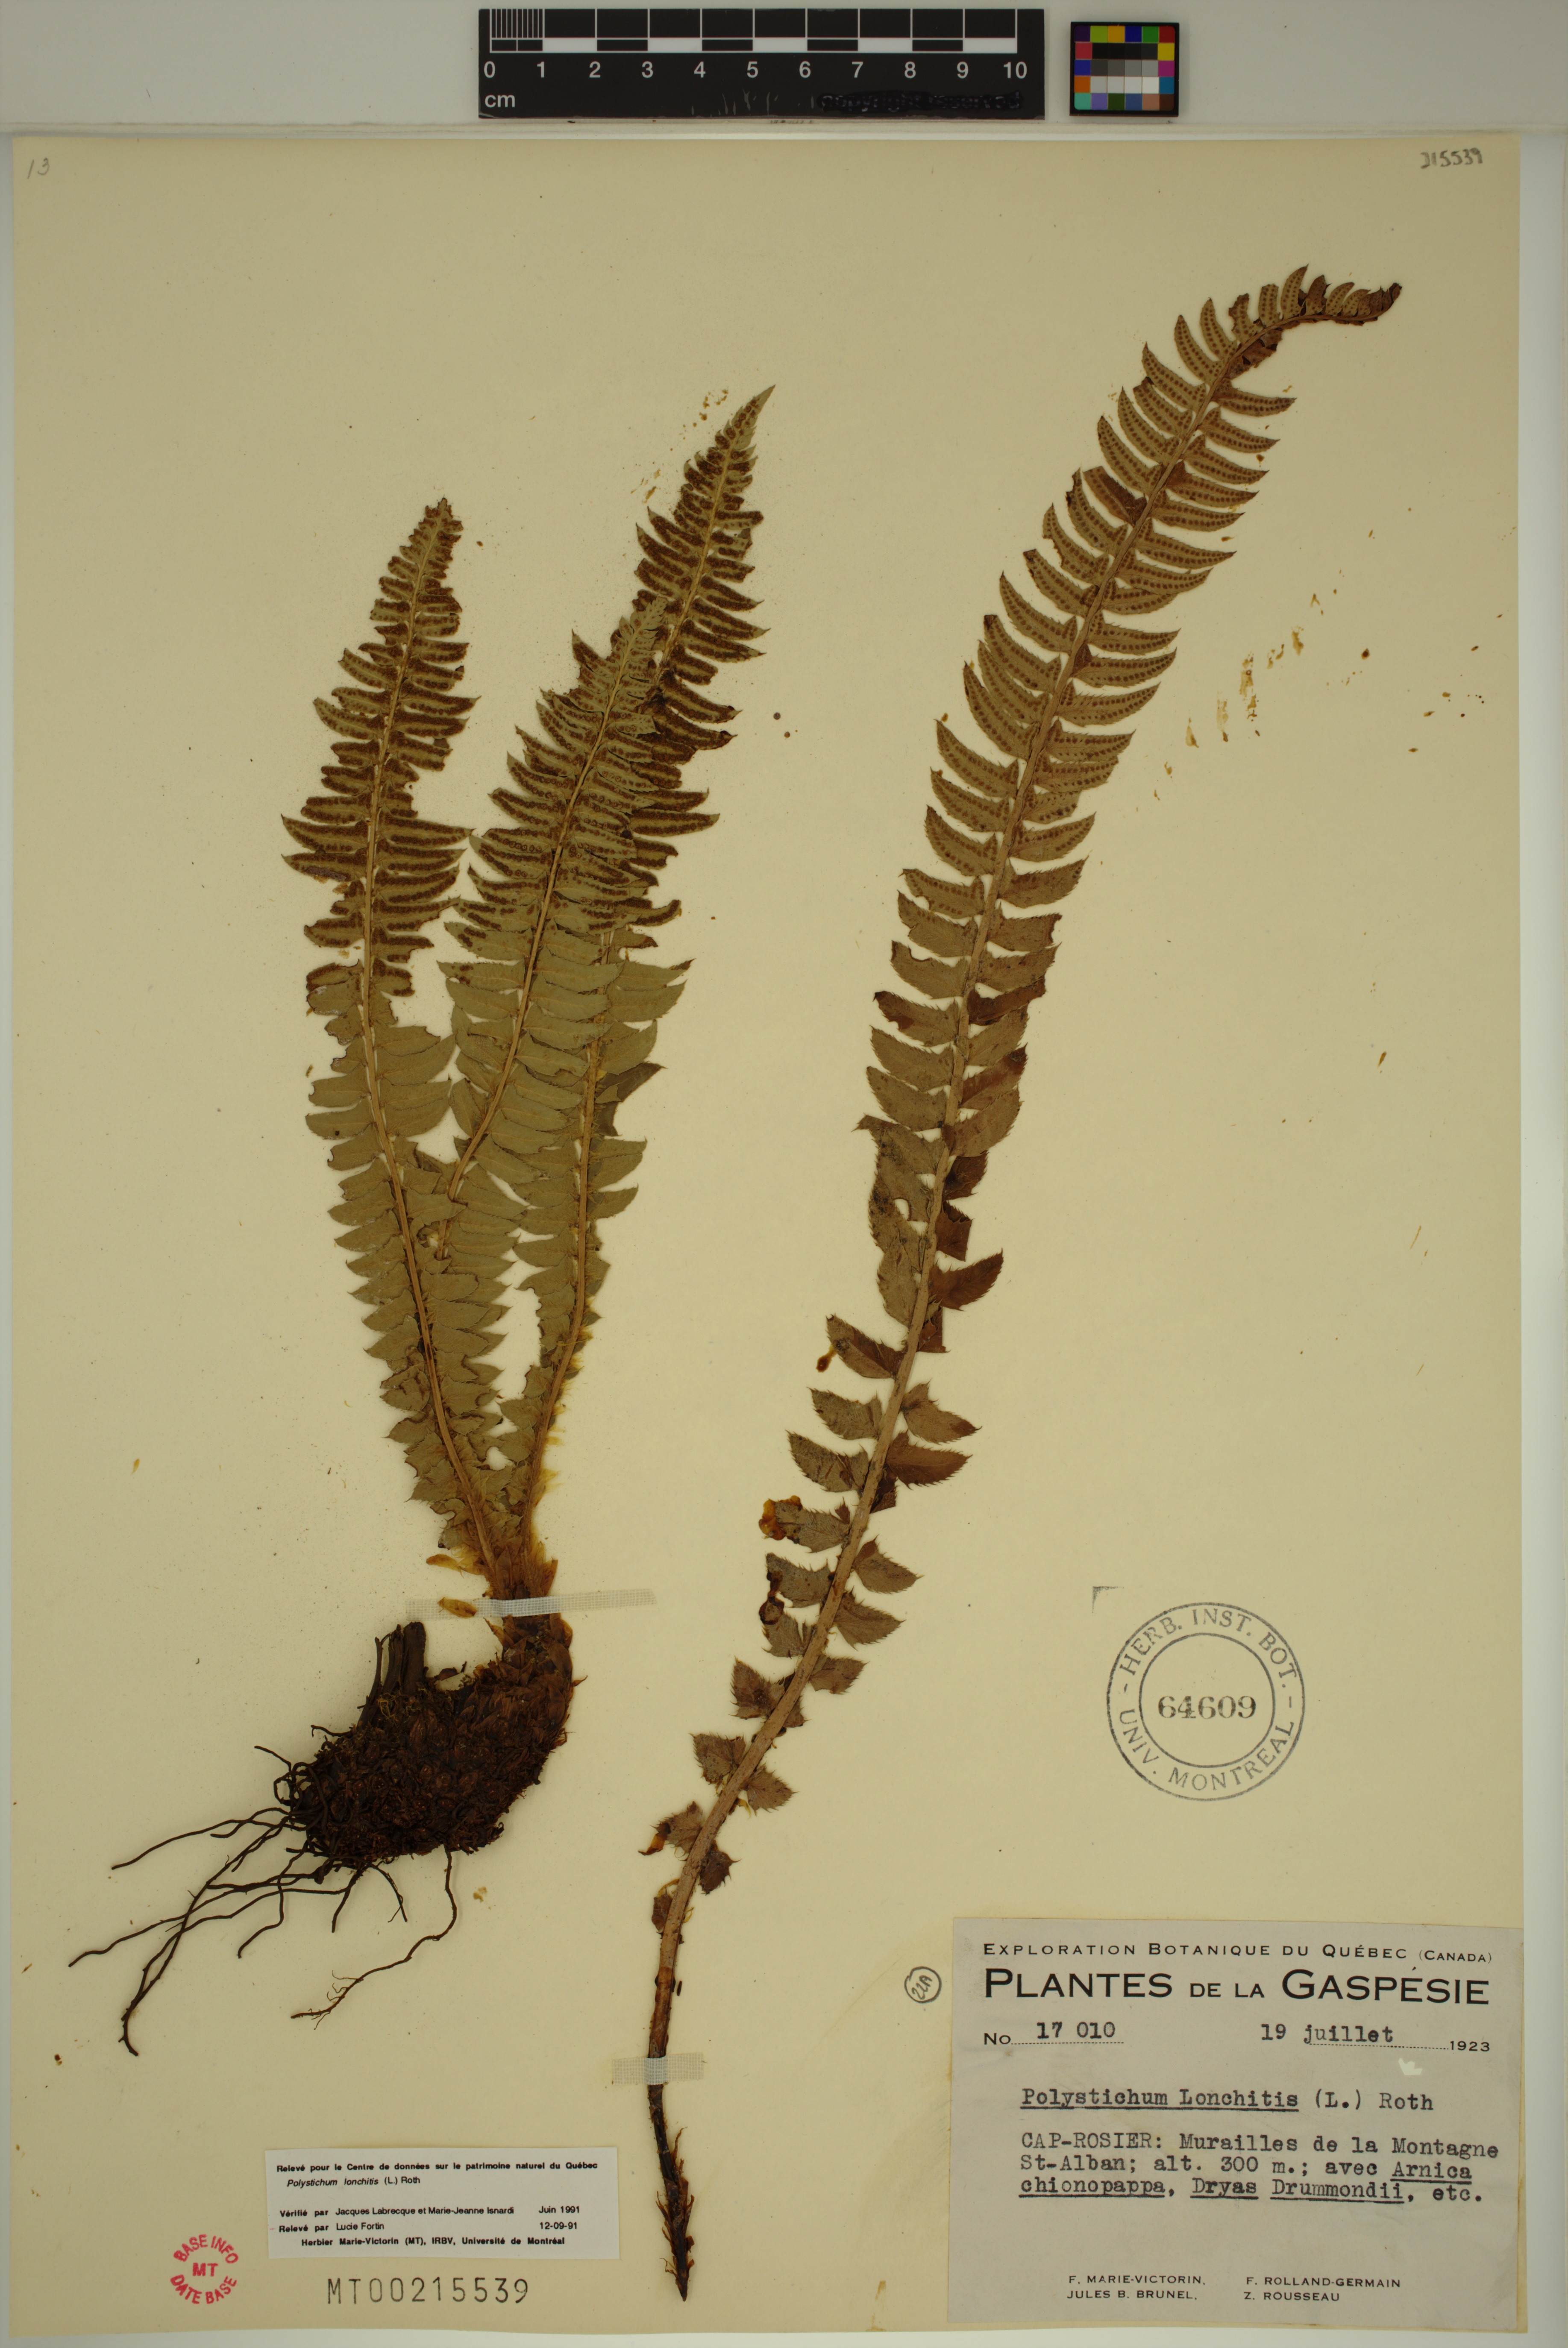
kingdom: Plantae
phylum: Tracheophyta
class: Polypodiopsida
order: Polypodiales
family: Dryopteridaceae
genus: Polystichum
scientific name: Polystichum lonchitis
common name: Holly fern
